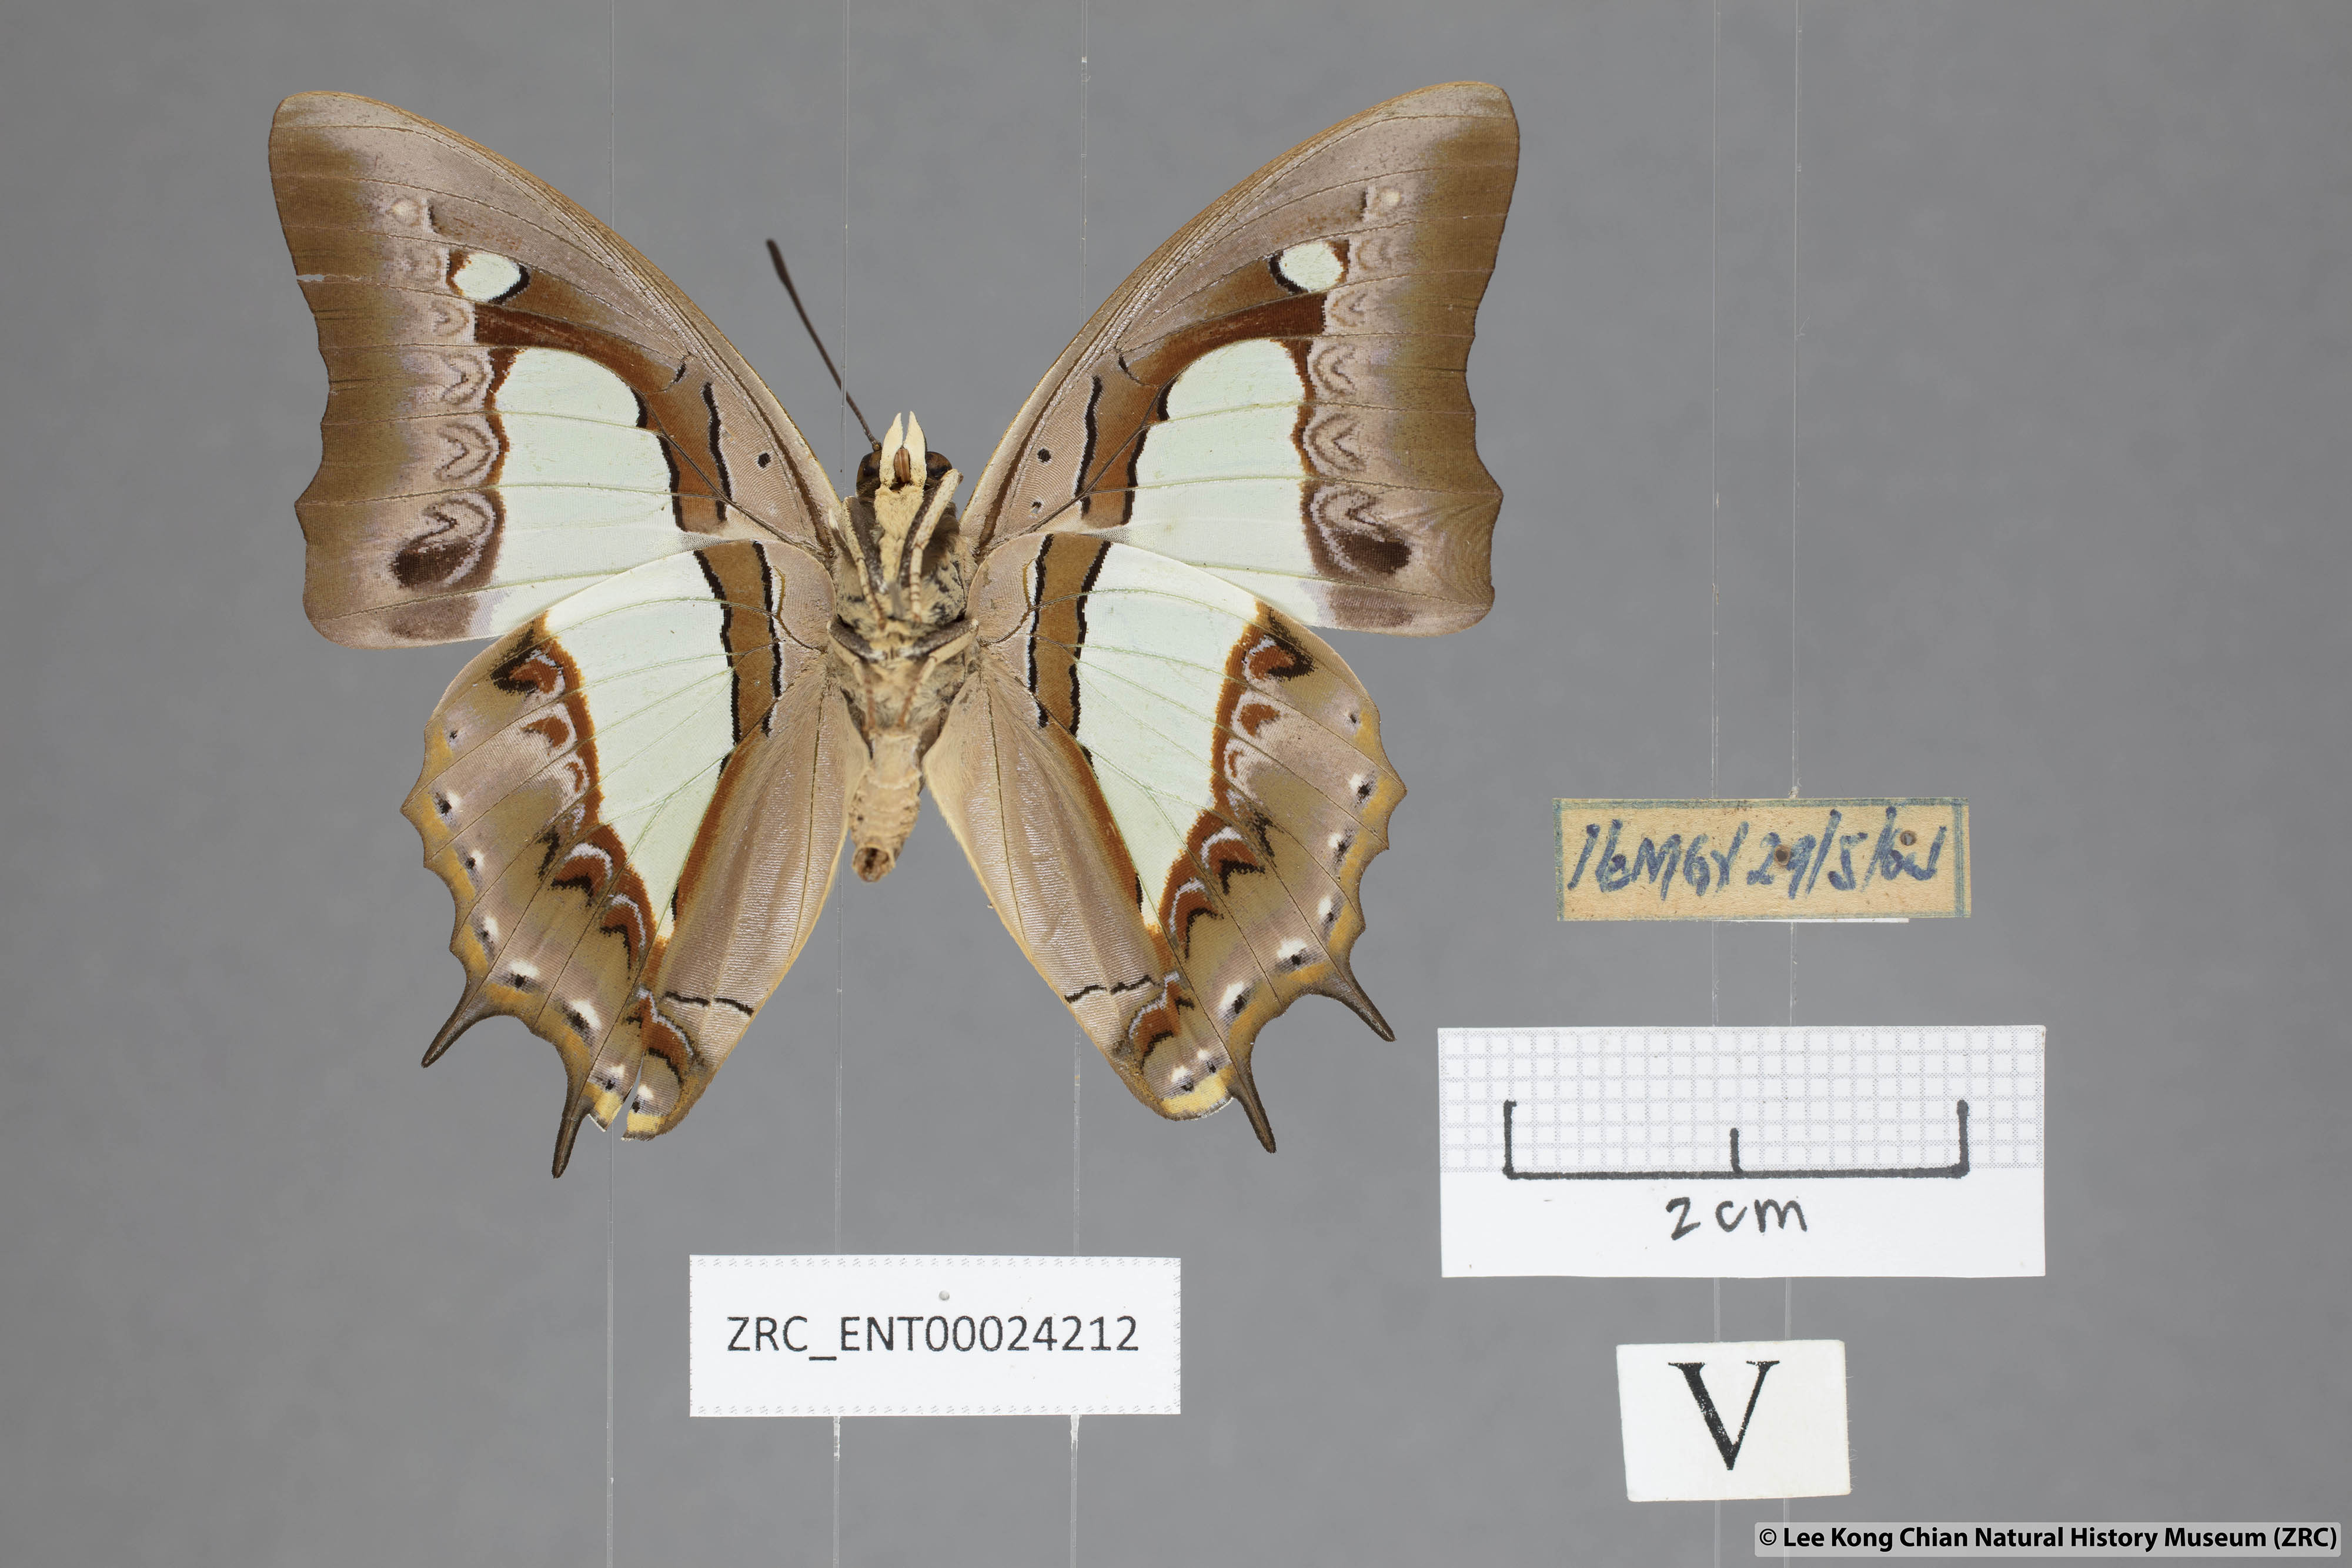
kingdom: Animalia
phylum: Arthropoda
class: Insecta
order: Lepidoptera
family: Nymphalidae
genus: Polyura
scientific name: Polyura athamas
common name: Common nawab
